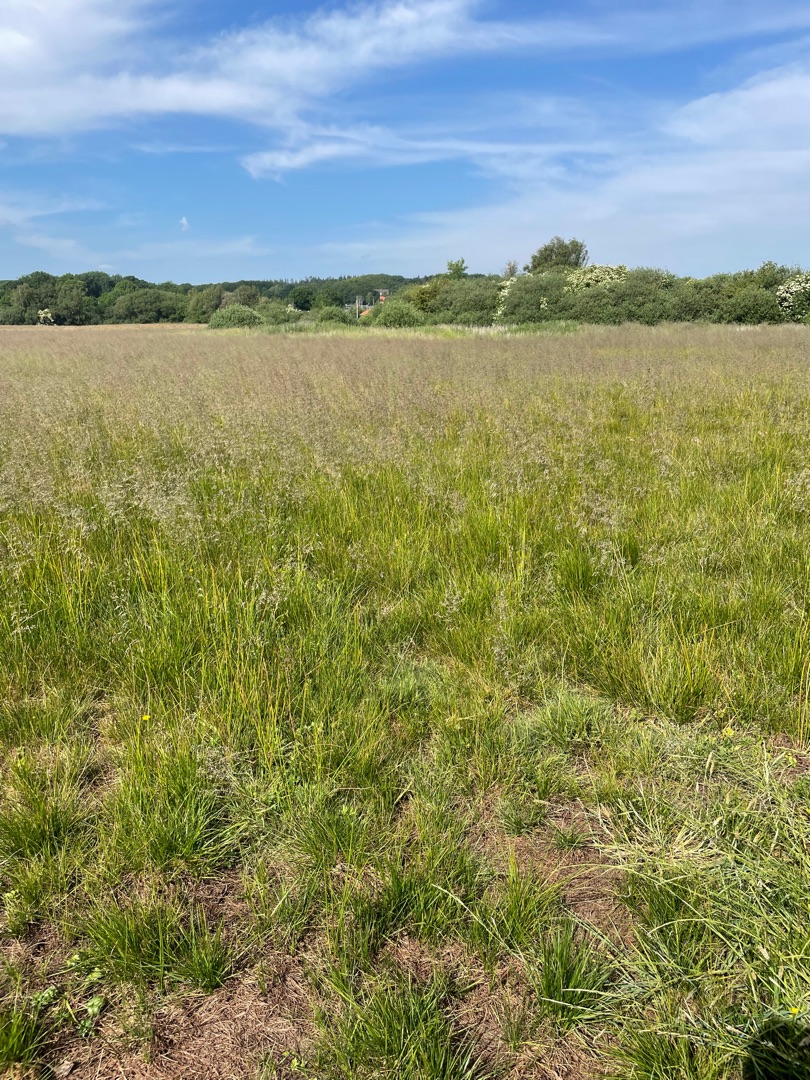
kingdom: Plantae
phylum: Tracheophyta
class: Liliopsida
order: Poales
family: Poaceae
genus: Deschampsia
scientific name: Deschampsia cespitosa
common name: Mose-bunke
